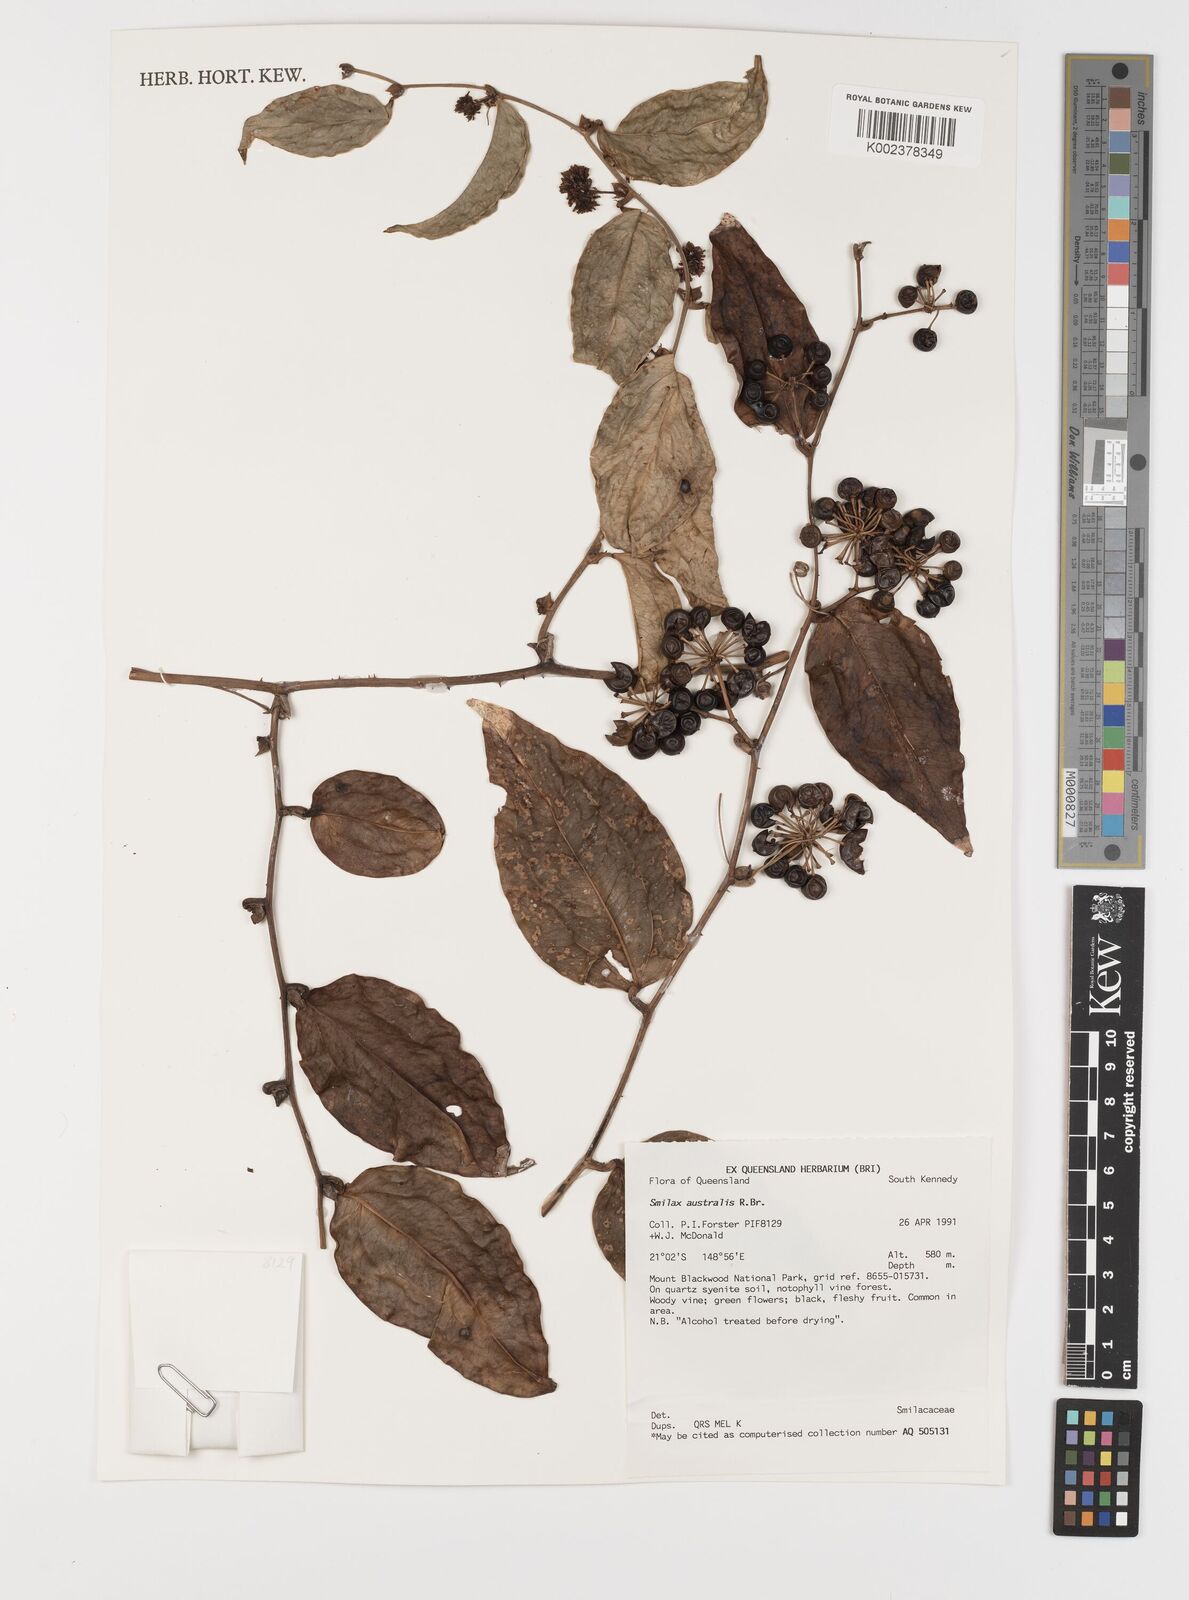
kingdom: Plantae
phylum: Tracheophyta
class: Liliopsida
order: Liliales
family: Smilacaceae
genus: Smilax
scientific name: Smilax australis
